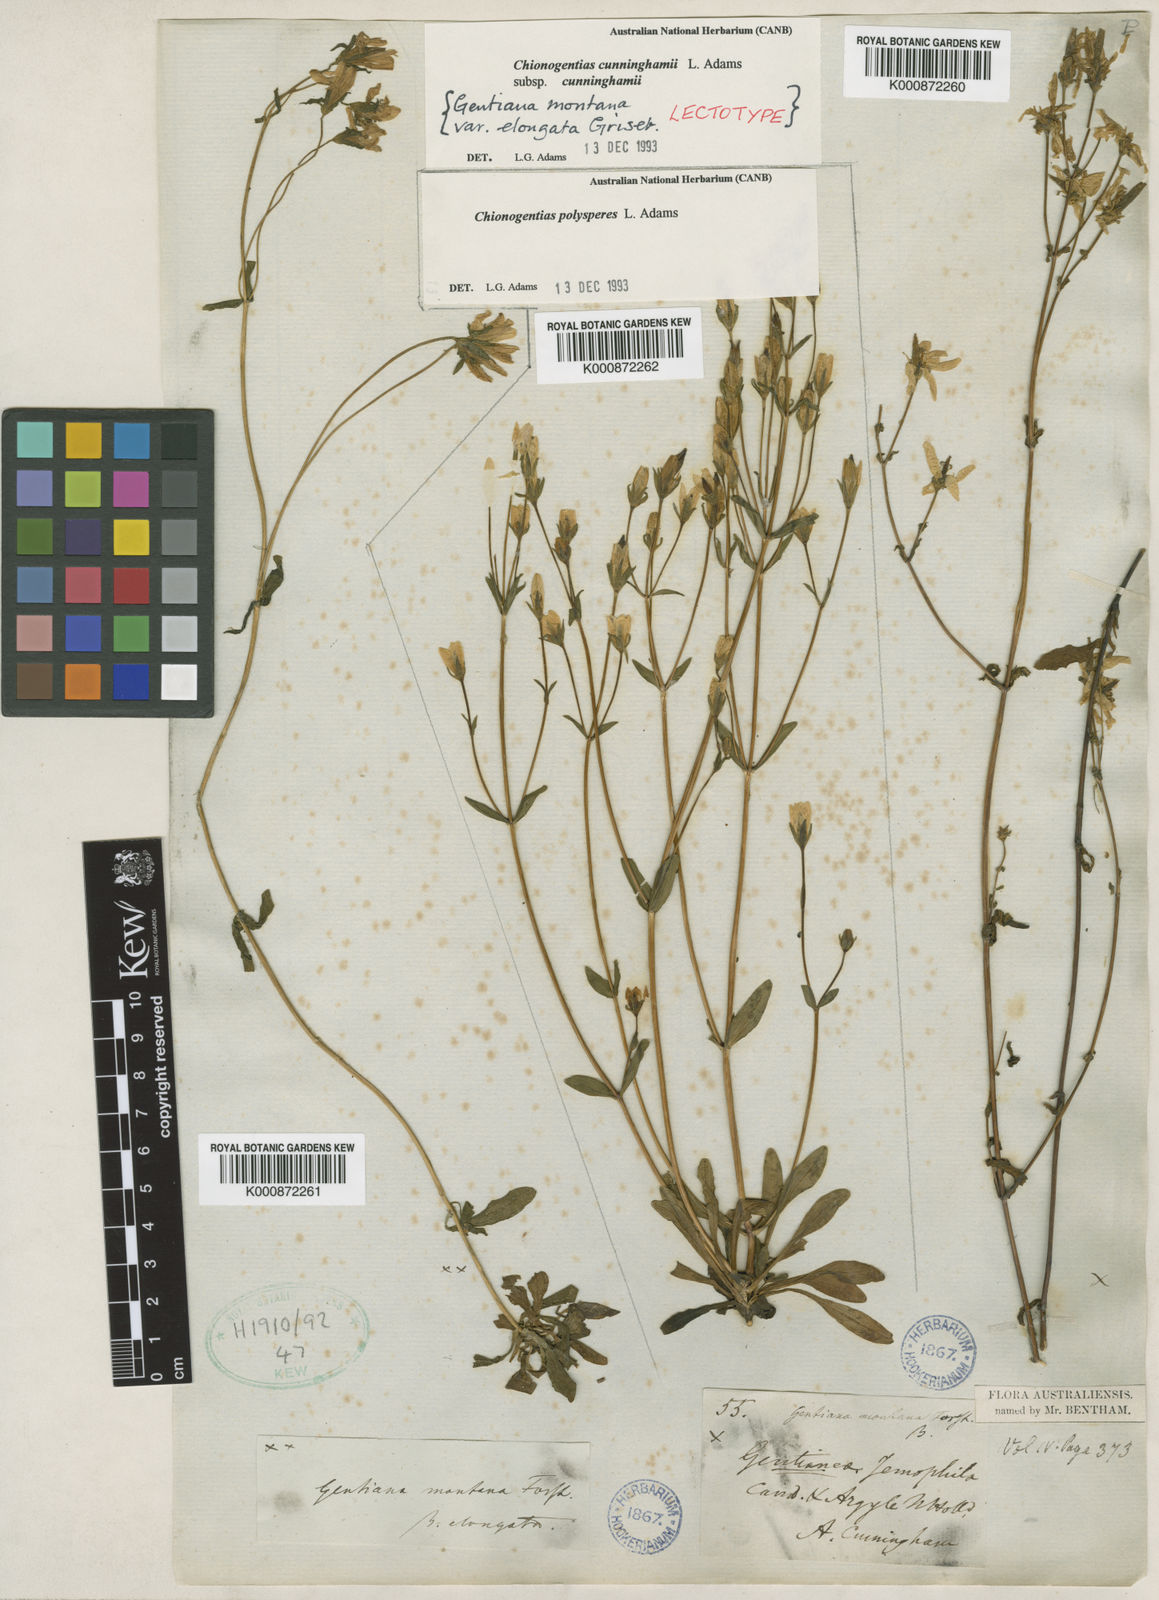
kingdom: Plantae
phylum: Tracheophyta
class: Magnoliopsida
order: Gentianales
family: Gentianaceae
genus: Gentianella
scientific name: Gentianella cunninghamii
